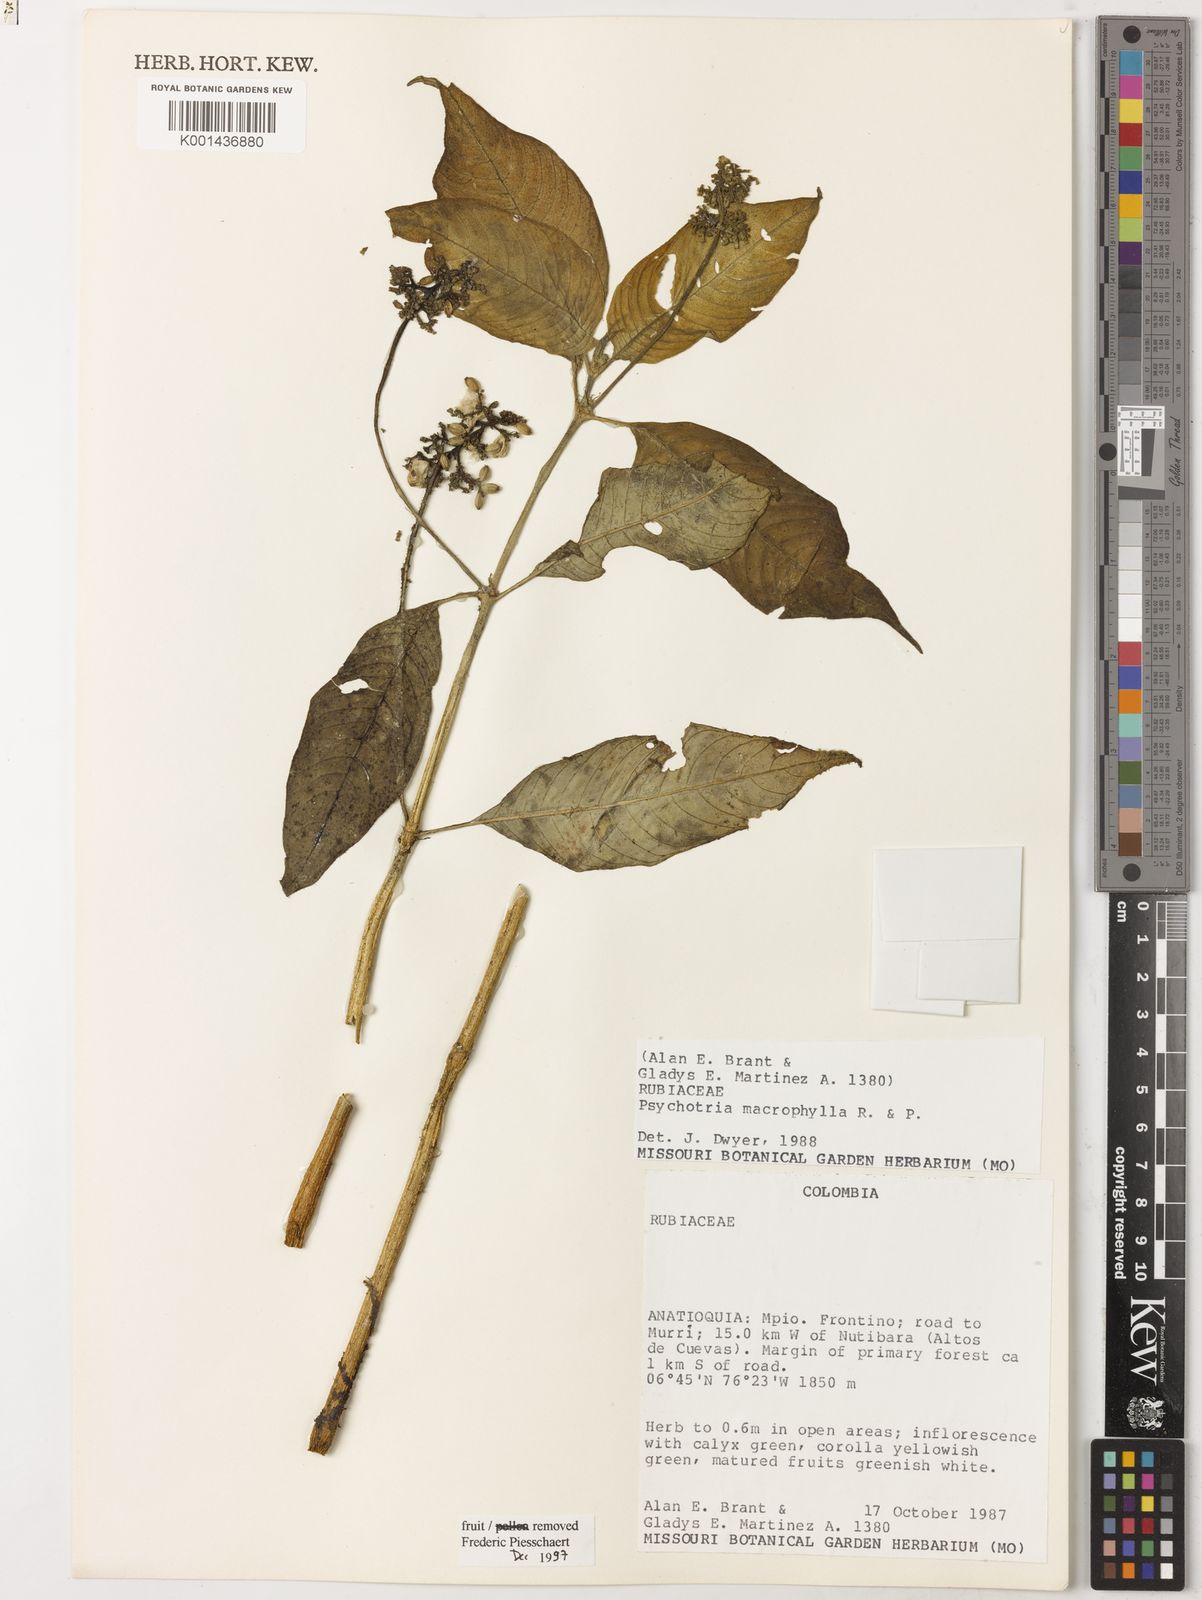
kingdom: Plantae
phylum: Tracheophyta
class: Magnoliopsida
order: Gentianales
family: Rubiaceae
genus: Notopleura
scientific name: Notopleura macrophylla
